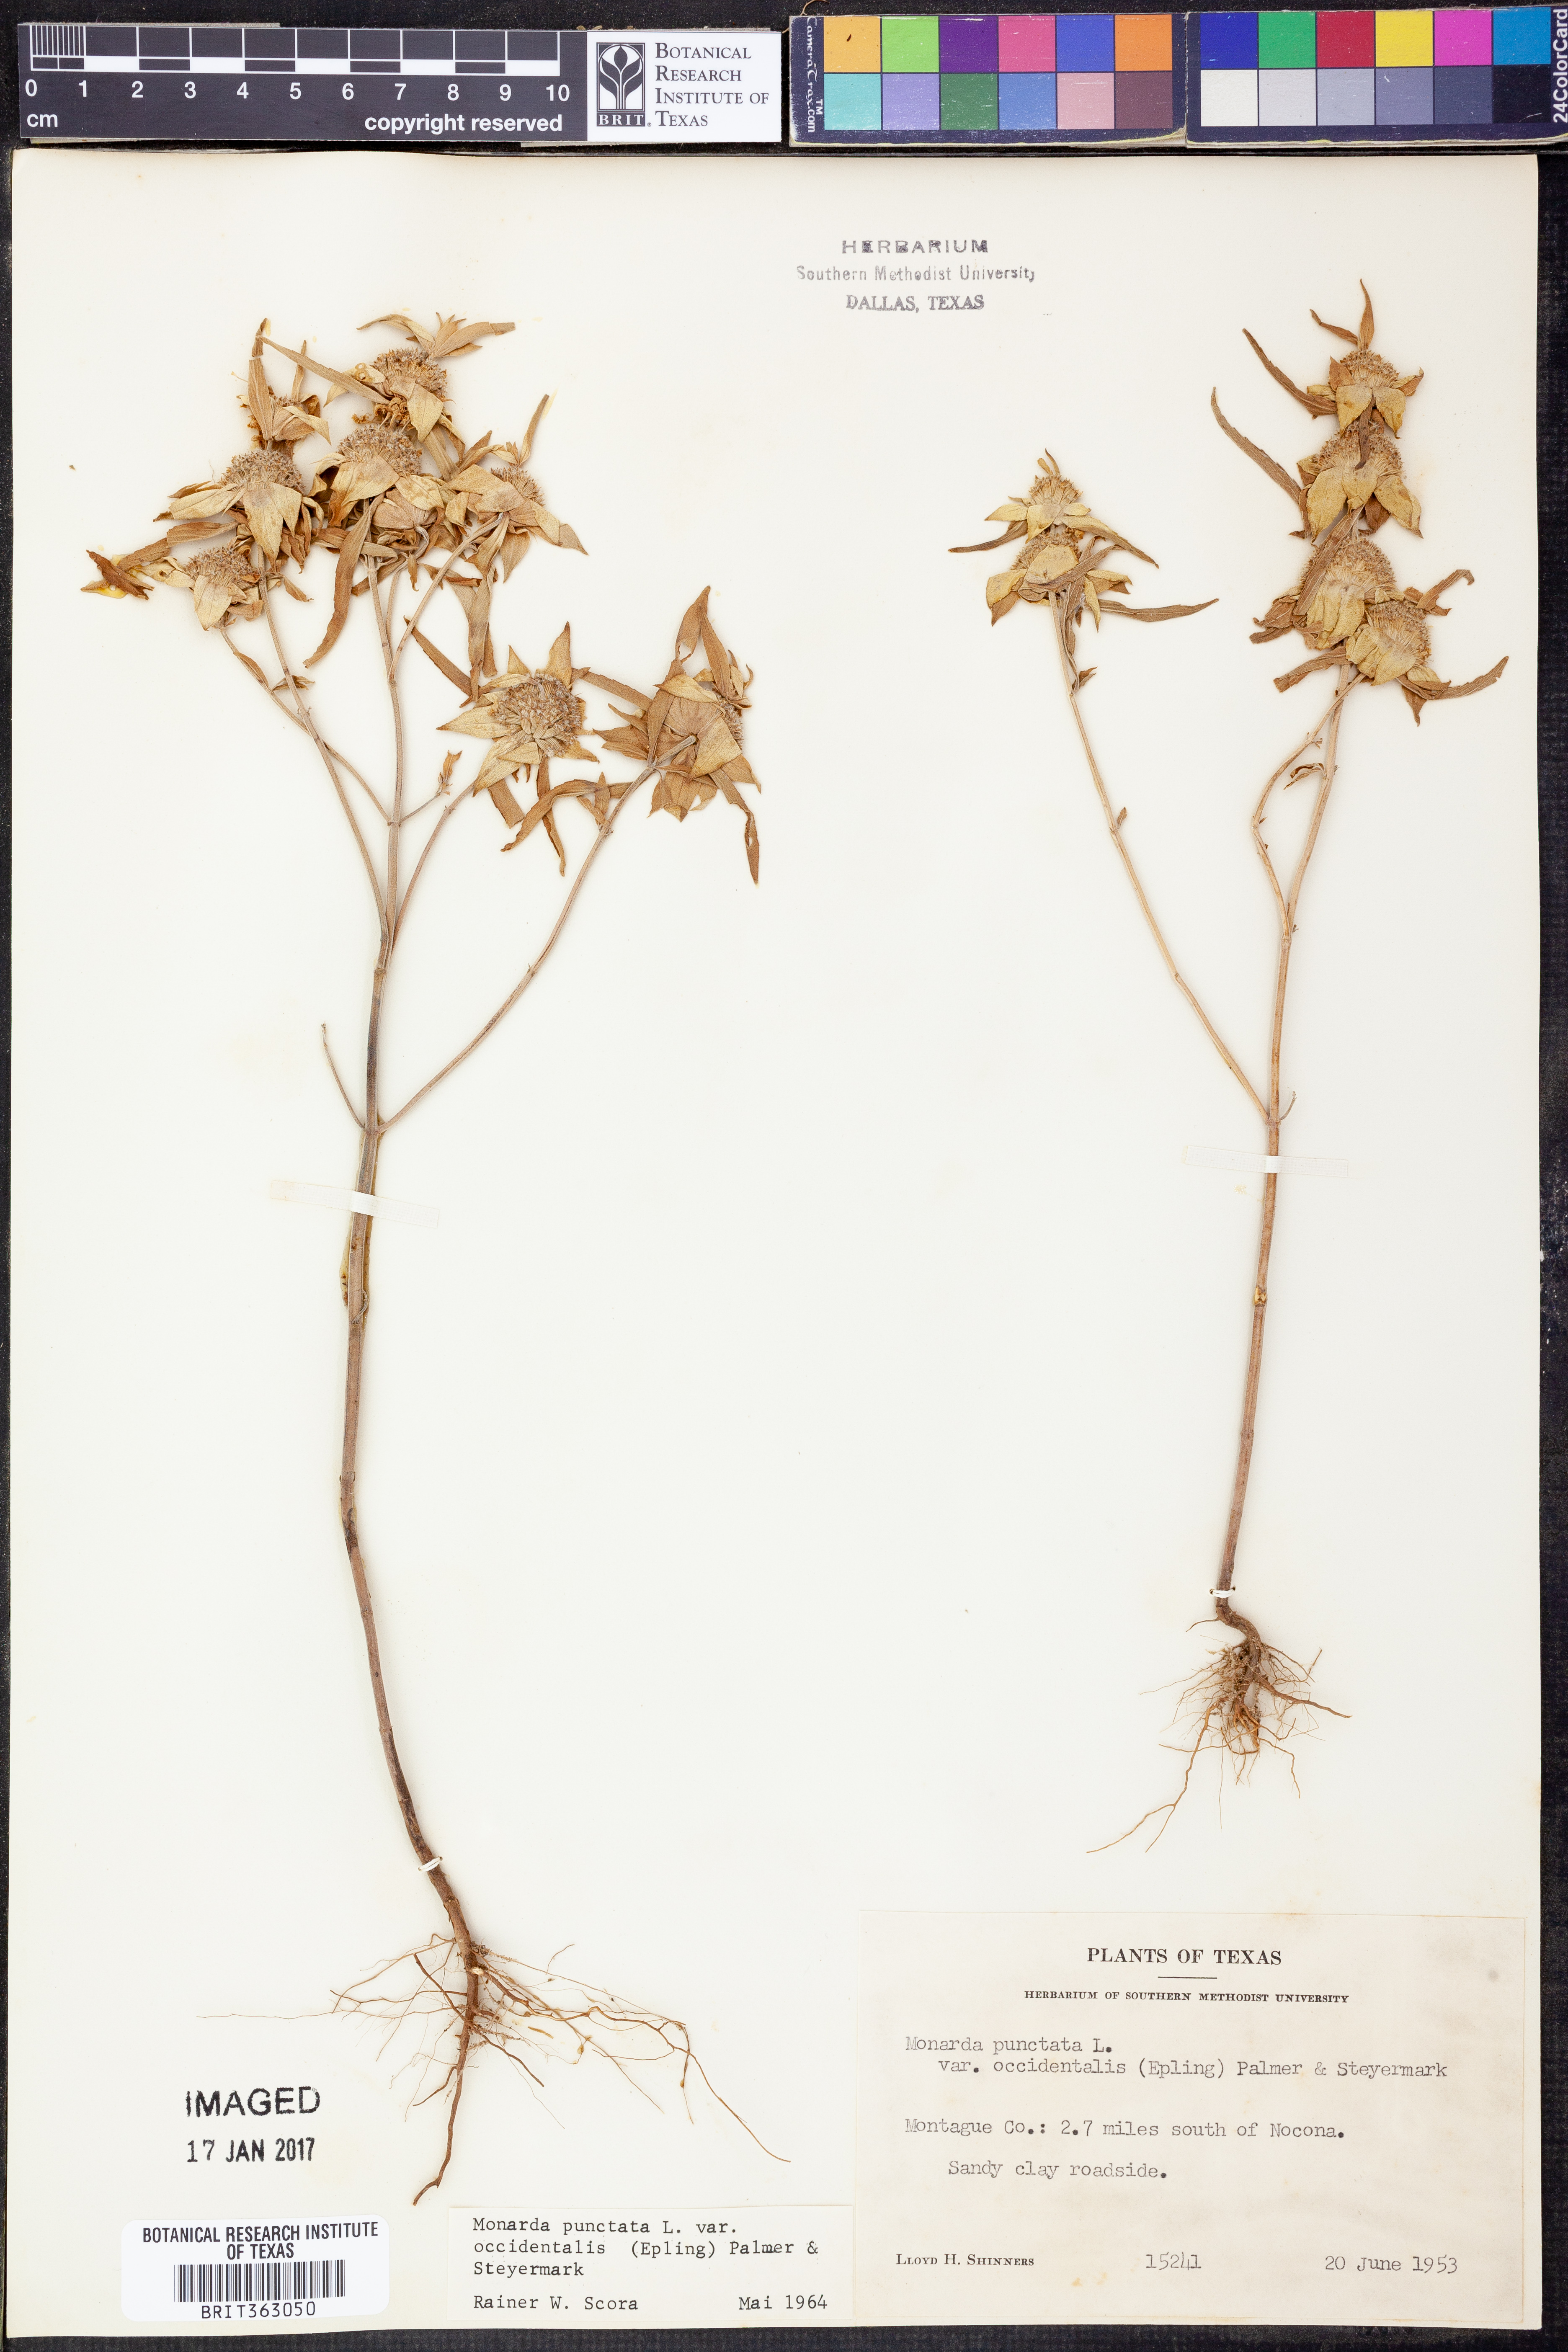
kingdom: Plantae
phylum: Tracheophyta
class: Magnoliopsida
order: Lamiales
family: Lamiaceae
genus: Monarda
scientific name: Monarda punctata
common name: Dotted monarda
